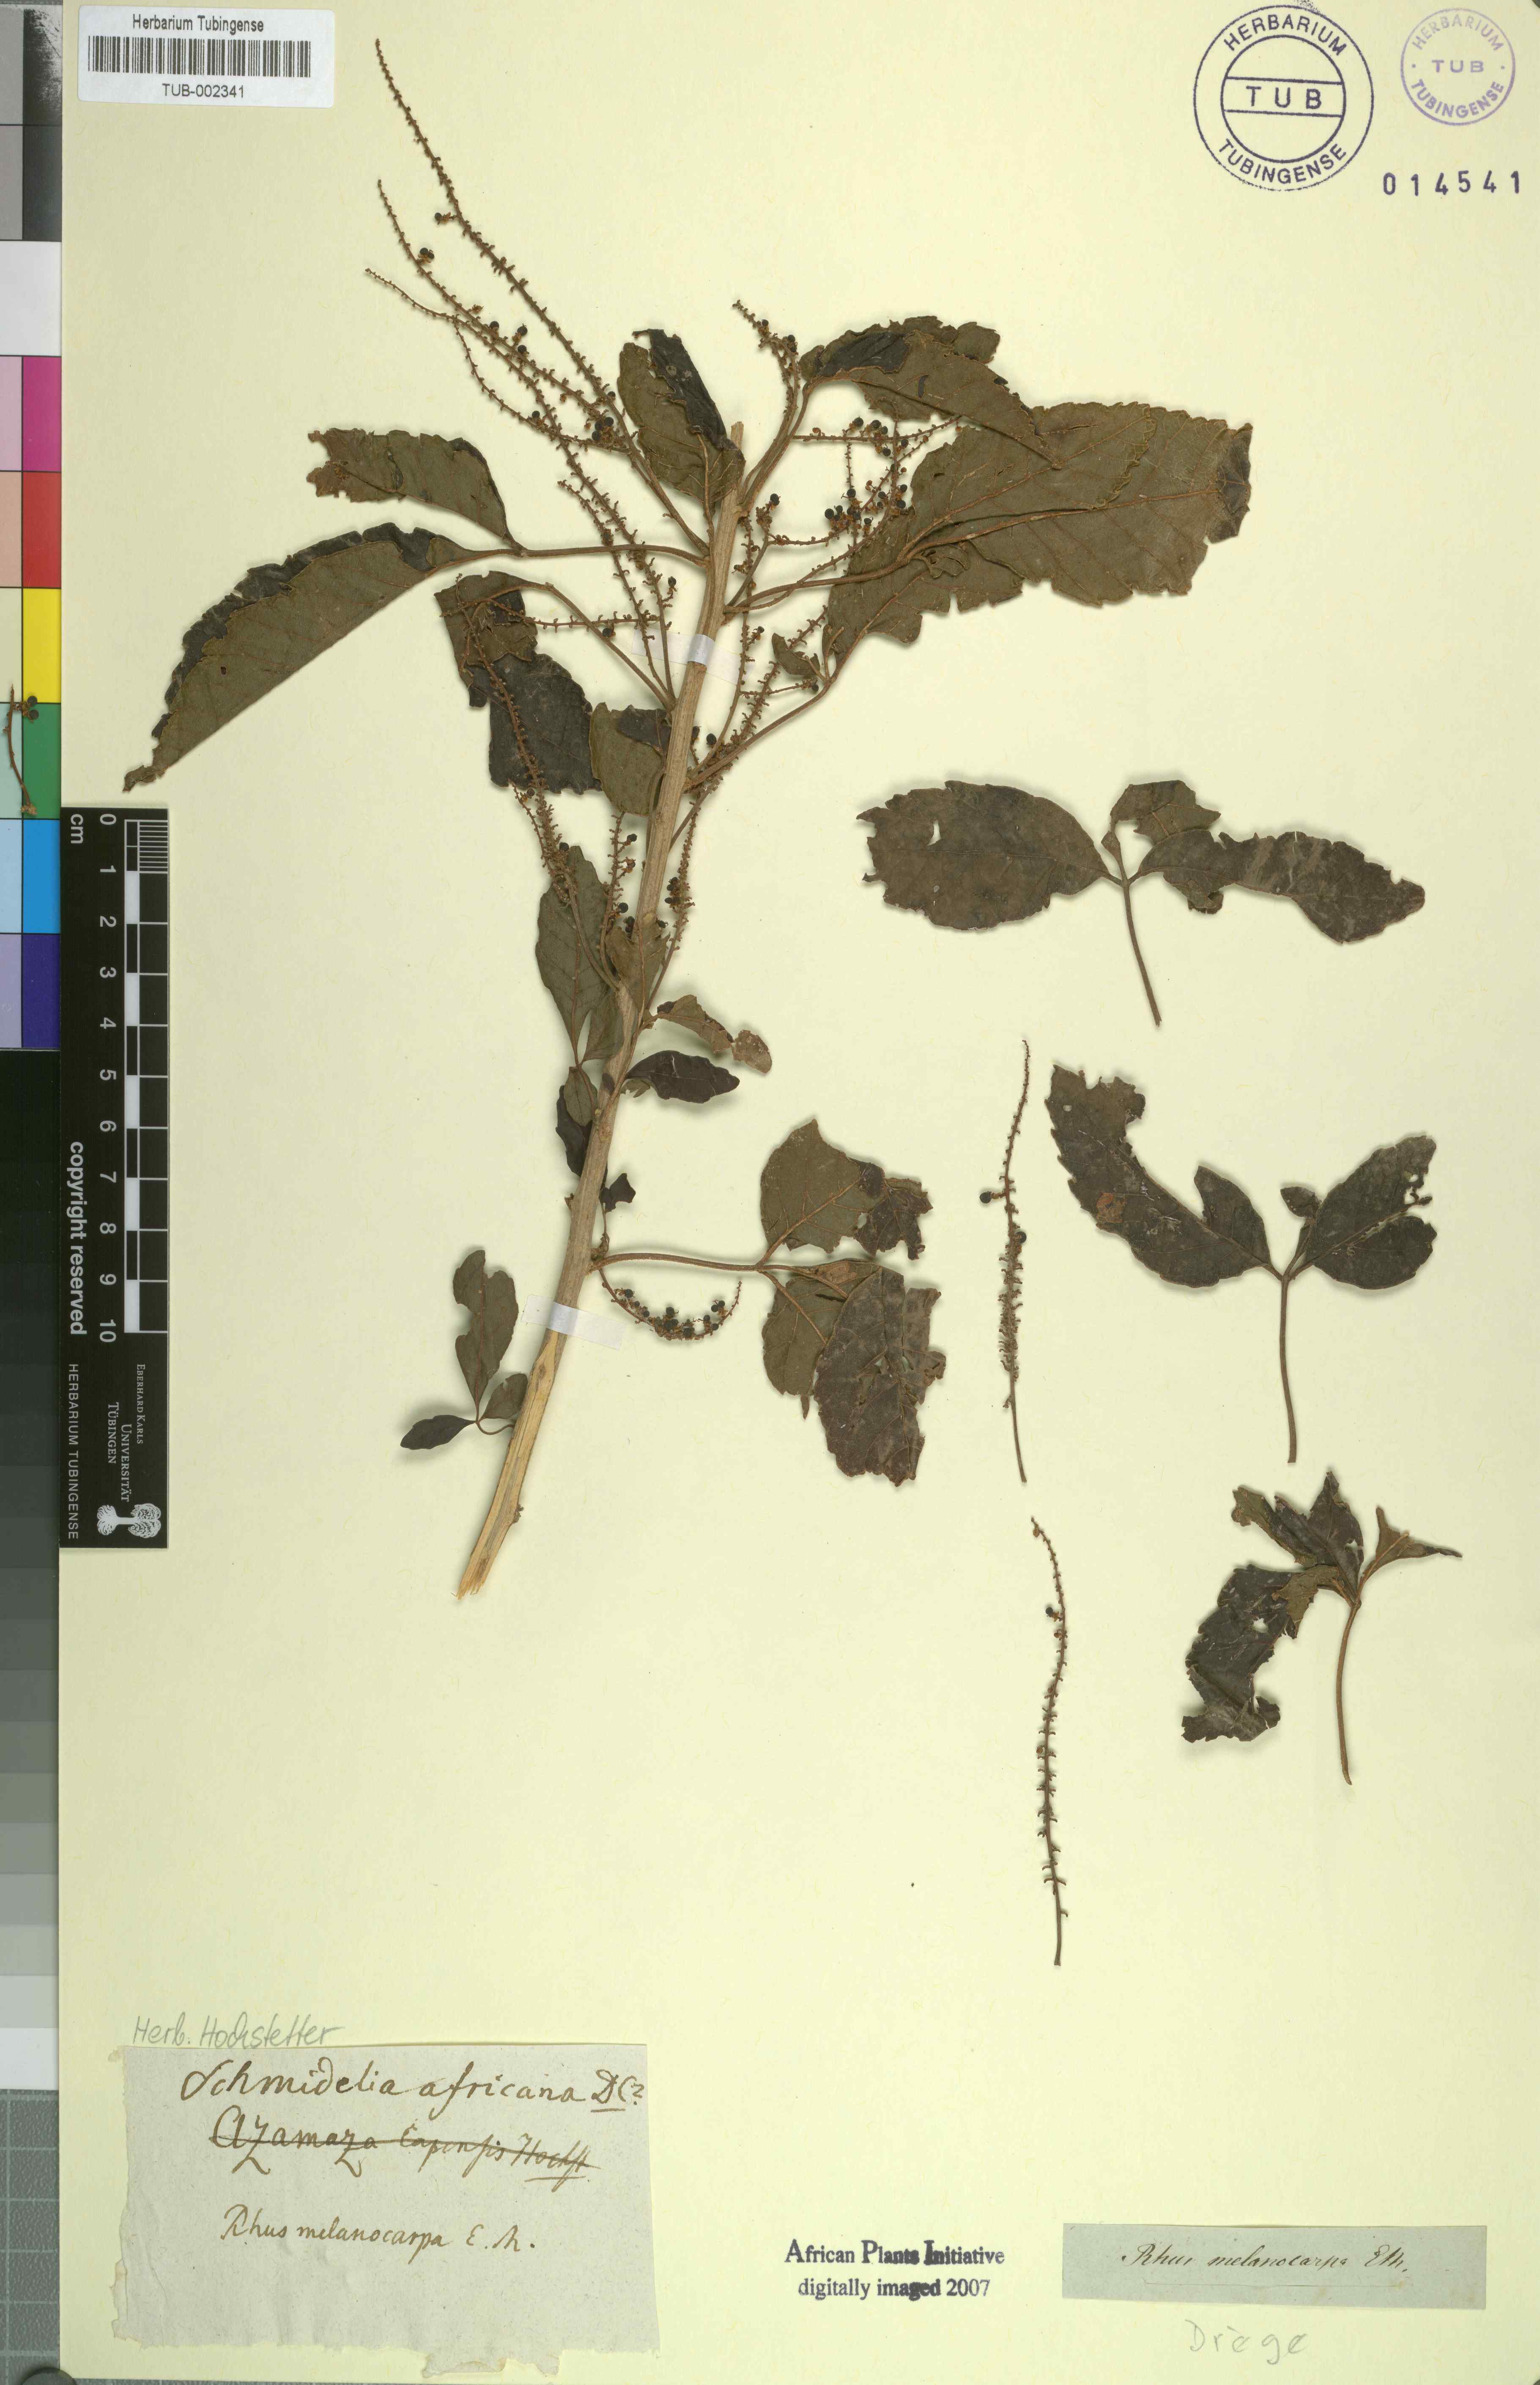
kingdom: Plantae
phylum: Tracheophyta
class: Magnoliopsida
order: Sapindales
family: Sapindaceae
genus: Allophylus
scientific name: Allophylus africanus
